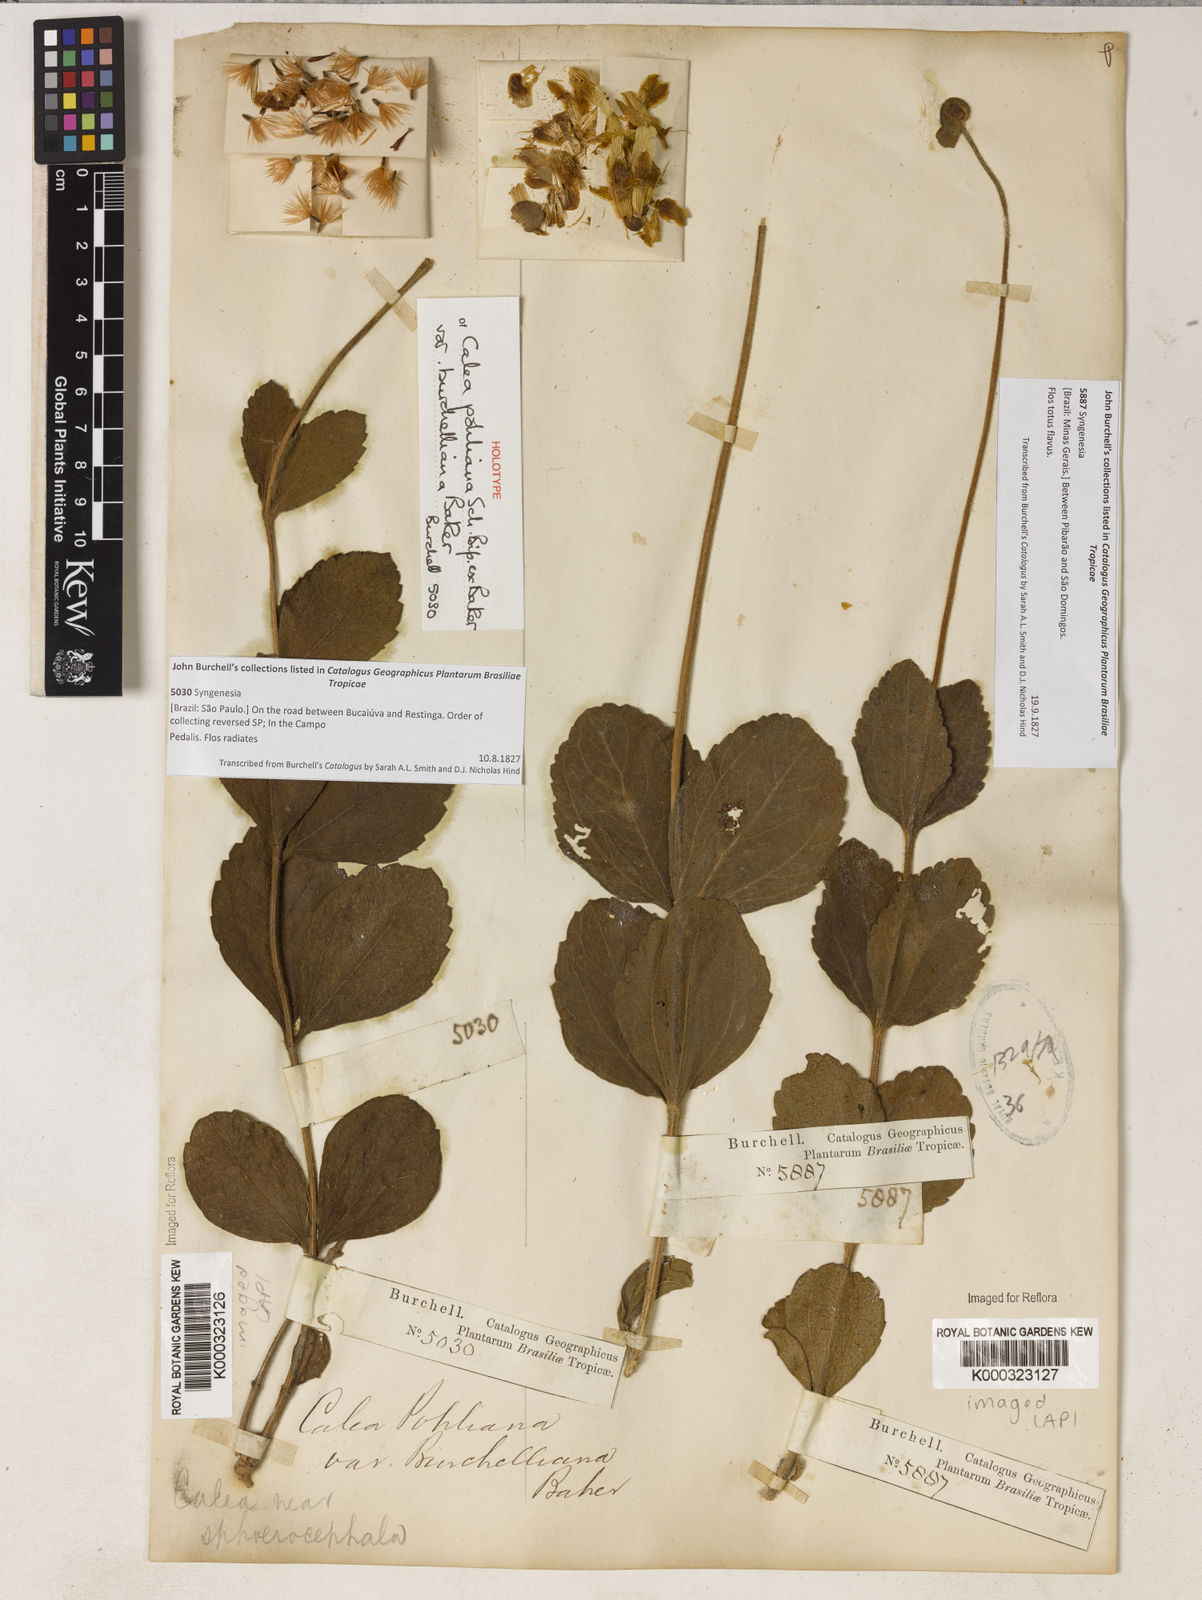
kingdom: Plantae
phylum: Tracheophyta
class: Magnoliopsida
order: Asterales
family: Asteraceae
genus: Calea
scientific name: Calea pohliana
